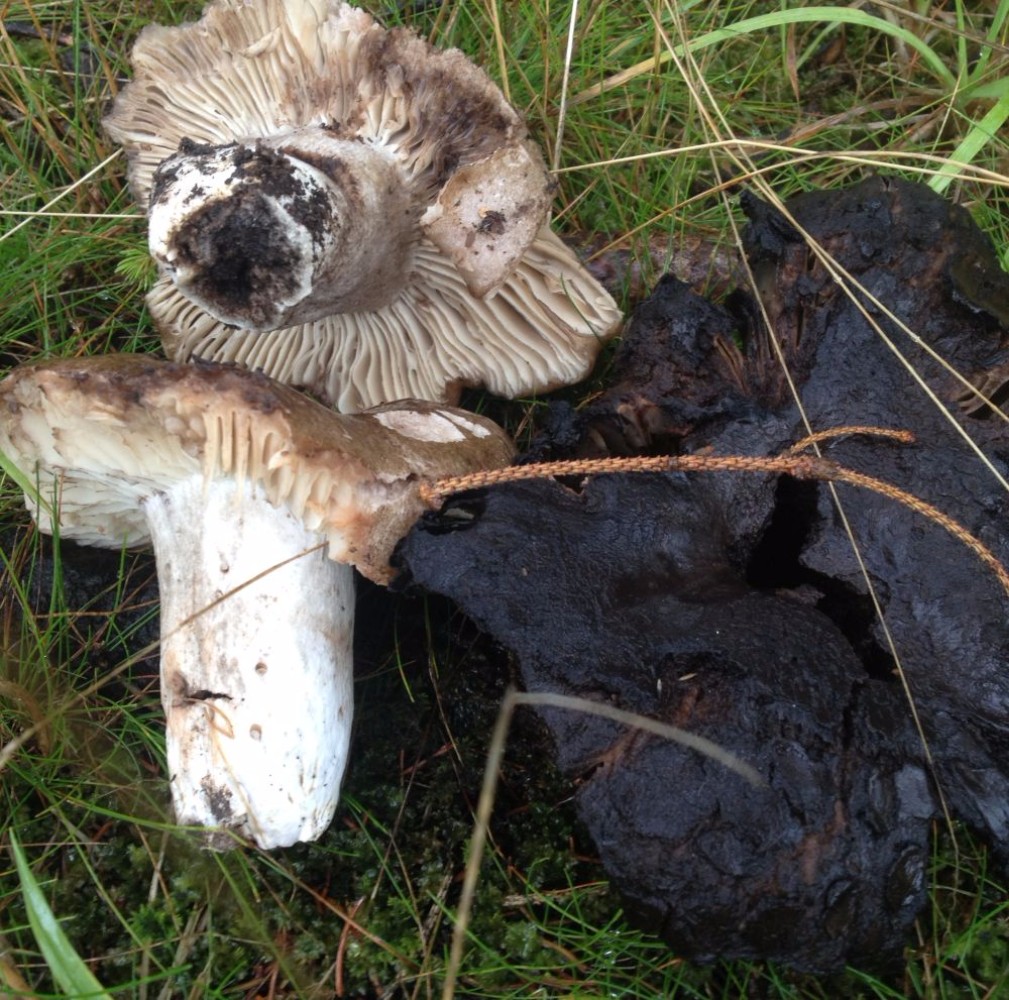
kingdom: Fungi
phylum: Basidiomycota
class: Agaricomycetes
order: Russulales
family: Russulaceae
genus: Russula
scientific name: Russula adusta
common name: sværtende skørhat
